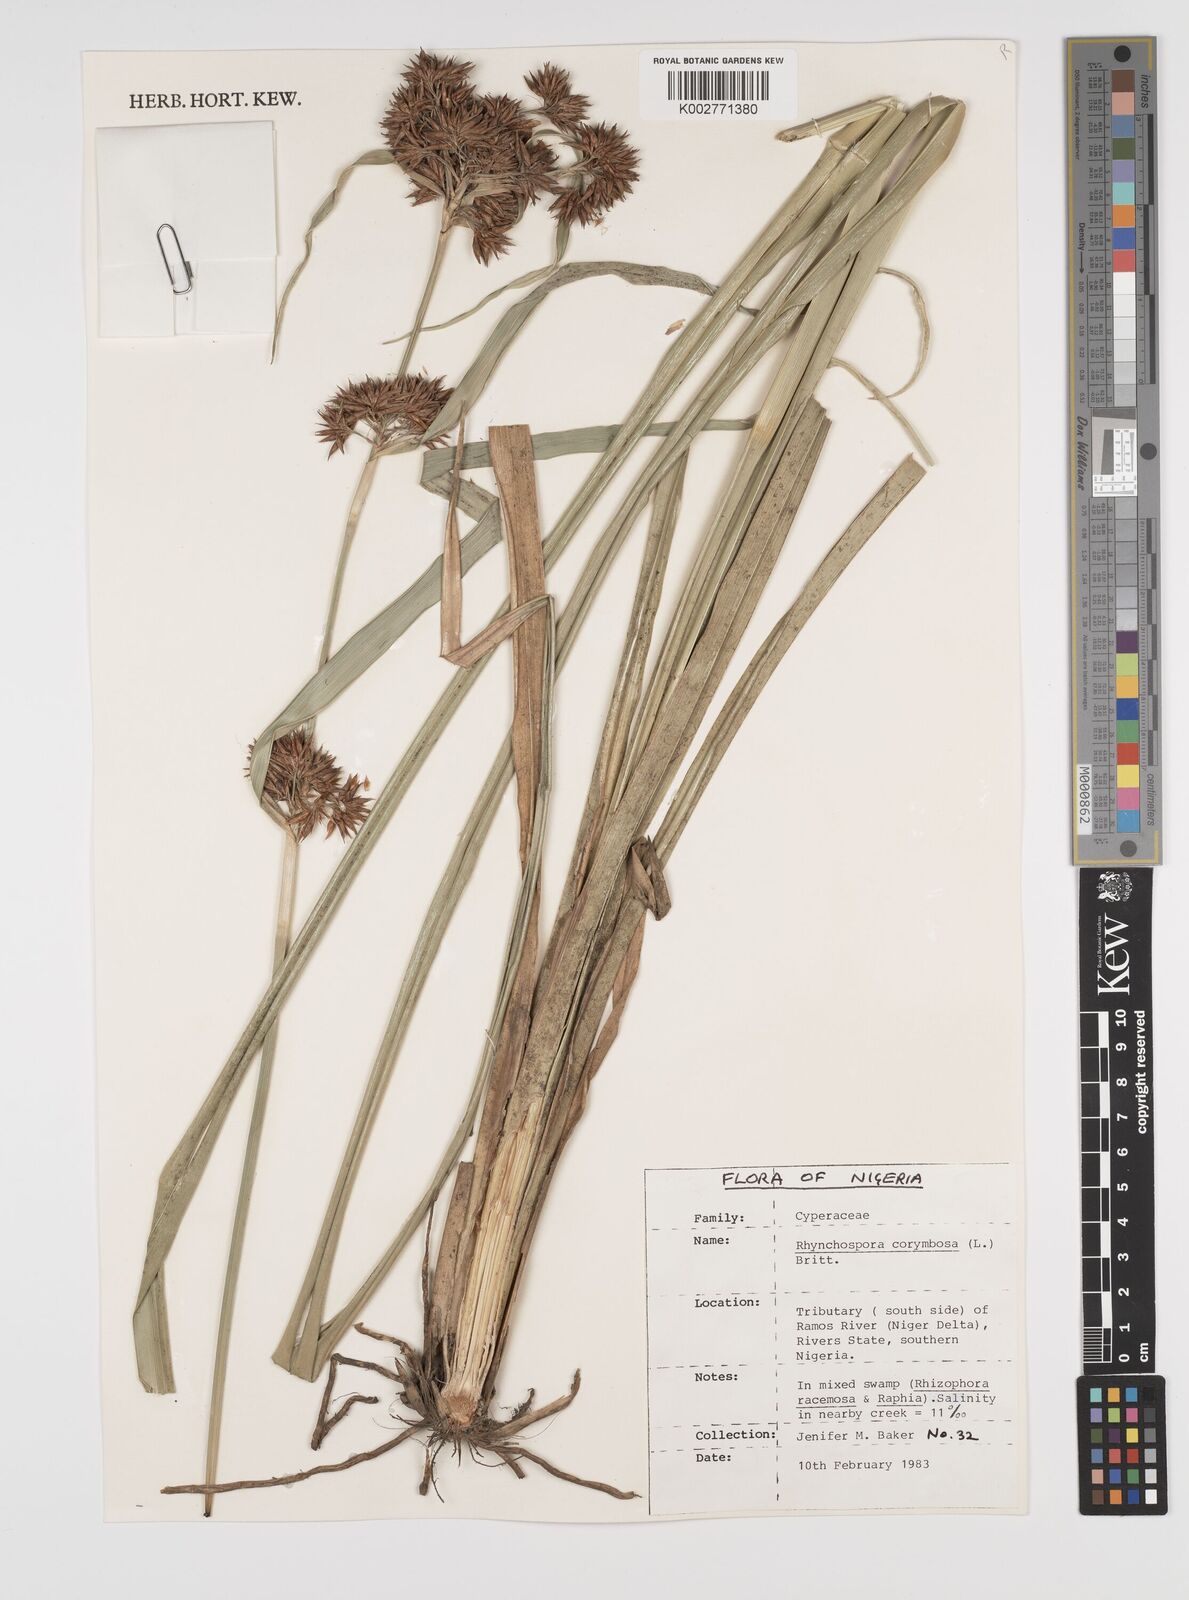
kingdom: Plantae
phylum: Tracheophyta
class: Liliopsida
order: Poales
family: Cyperaceae
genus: Rhynchospora
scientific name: Rhynchospora corymbosa
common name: Golden beak sedge
